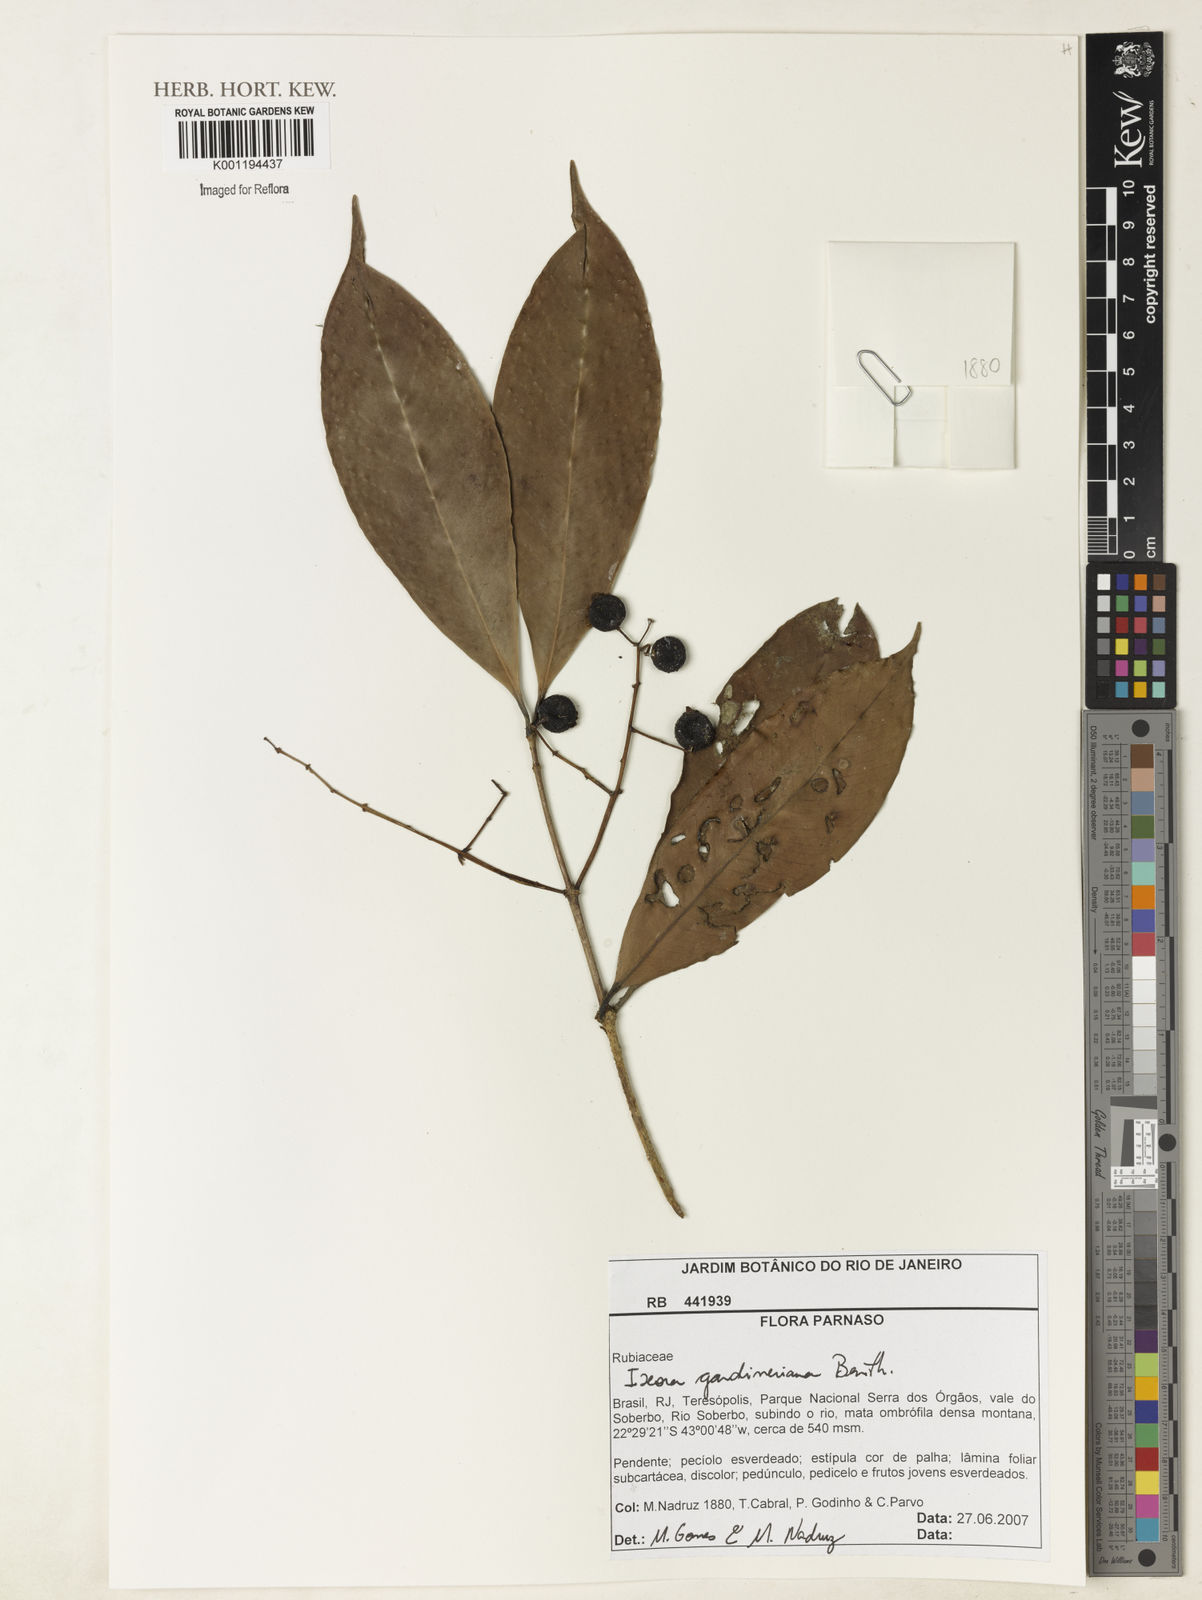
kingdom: Plantae
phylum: Tracheophyta
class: Magnoliopsida
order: Gentianales
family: Rubiaceae
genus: Ixora
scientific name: Ixora gardneriana
